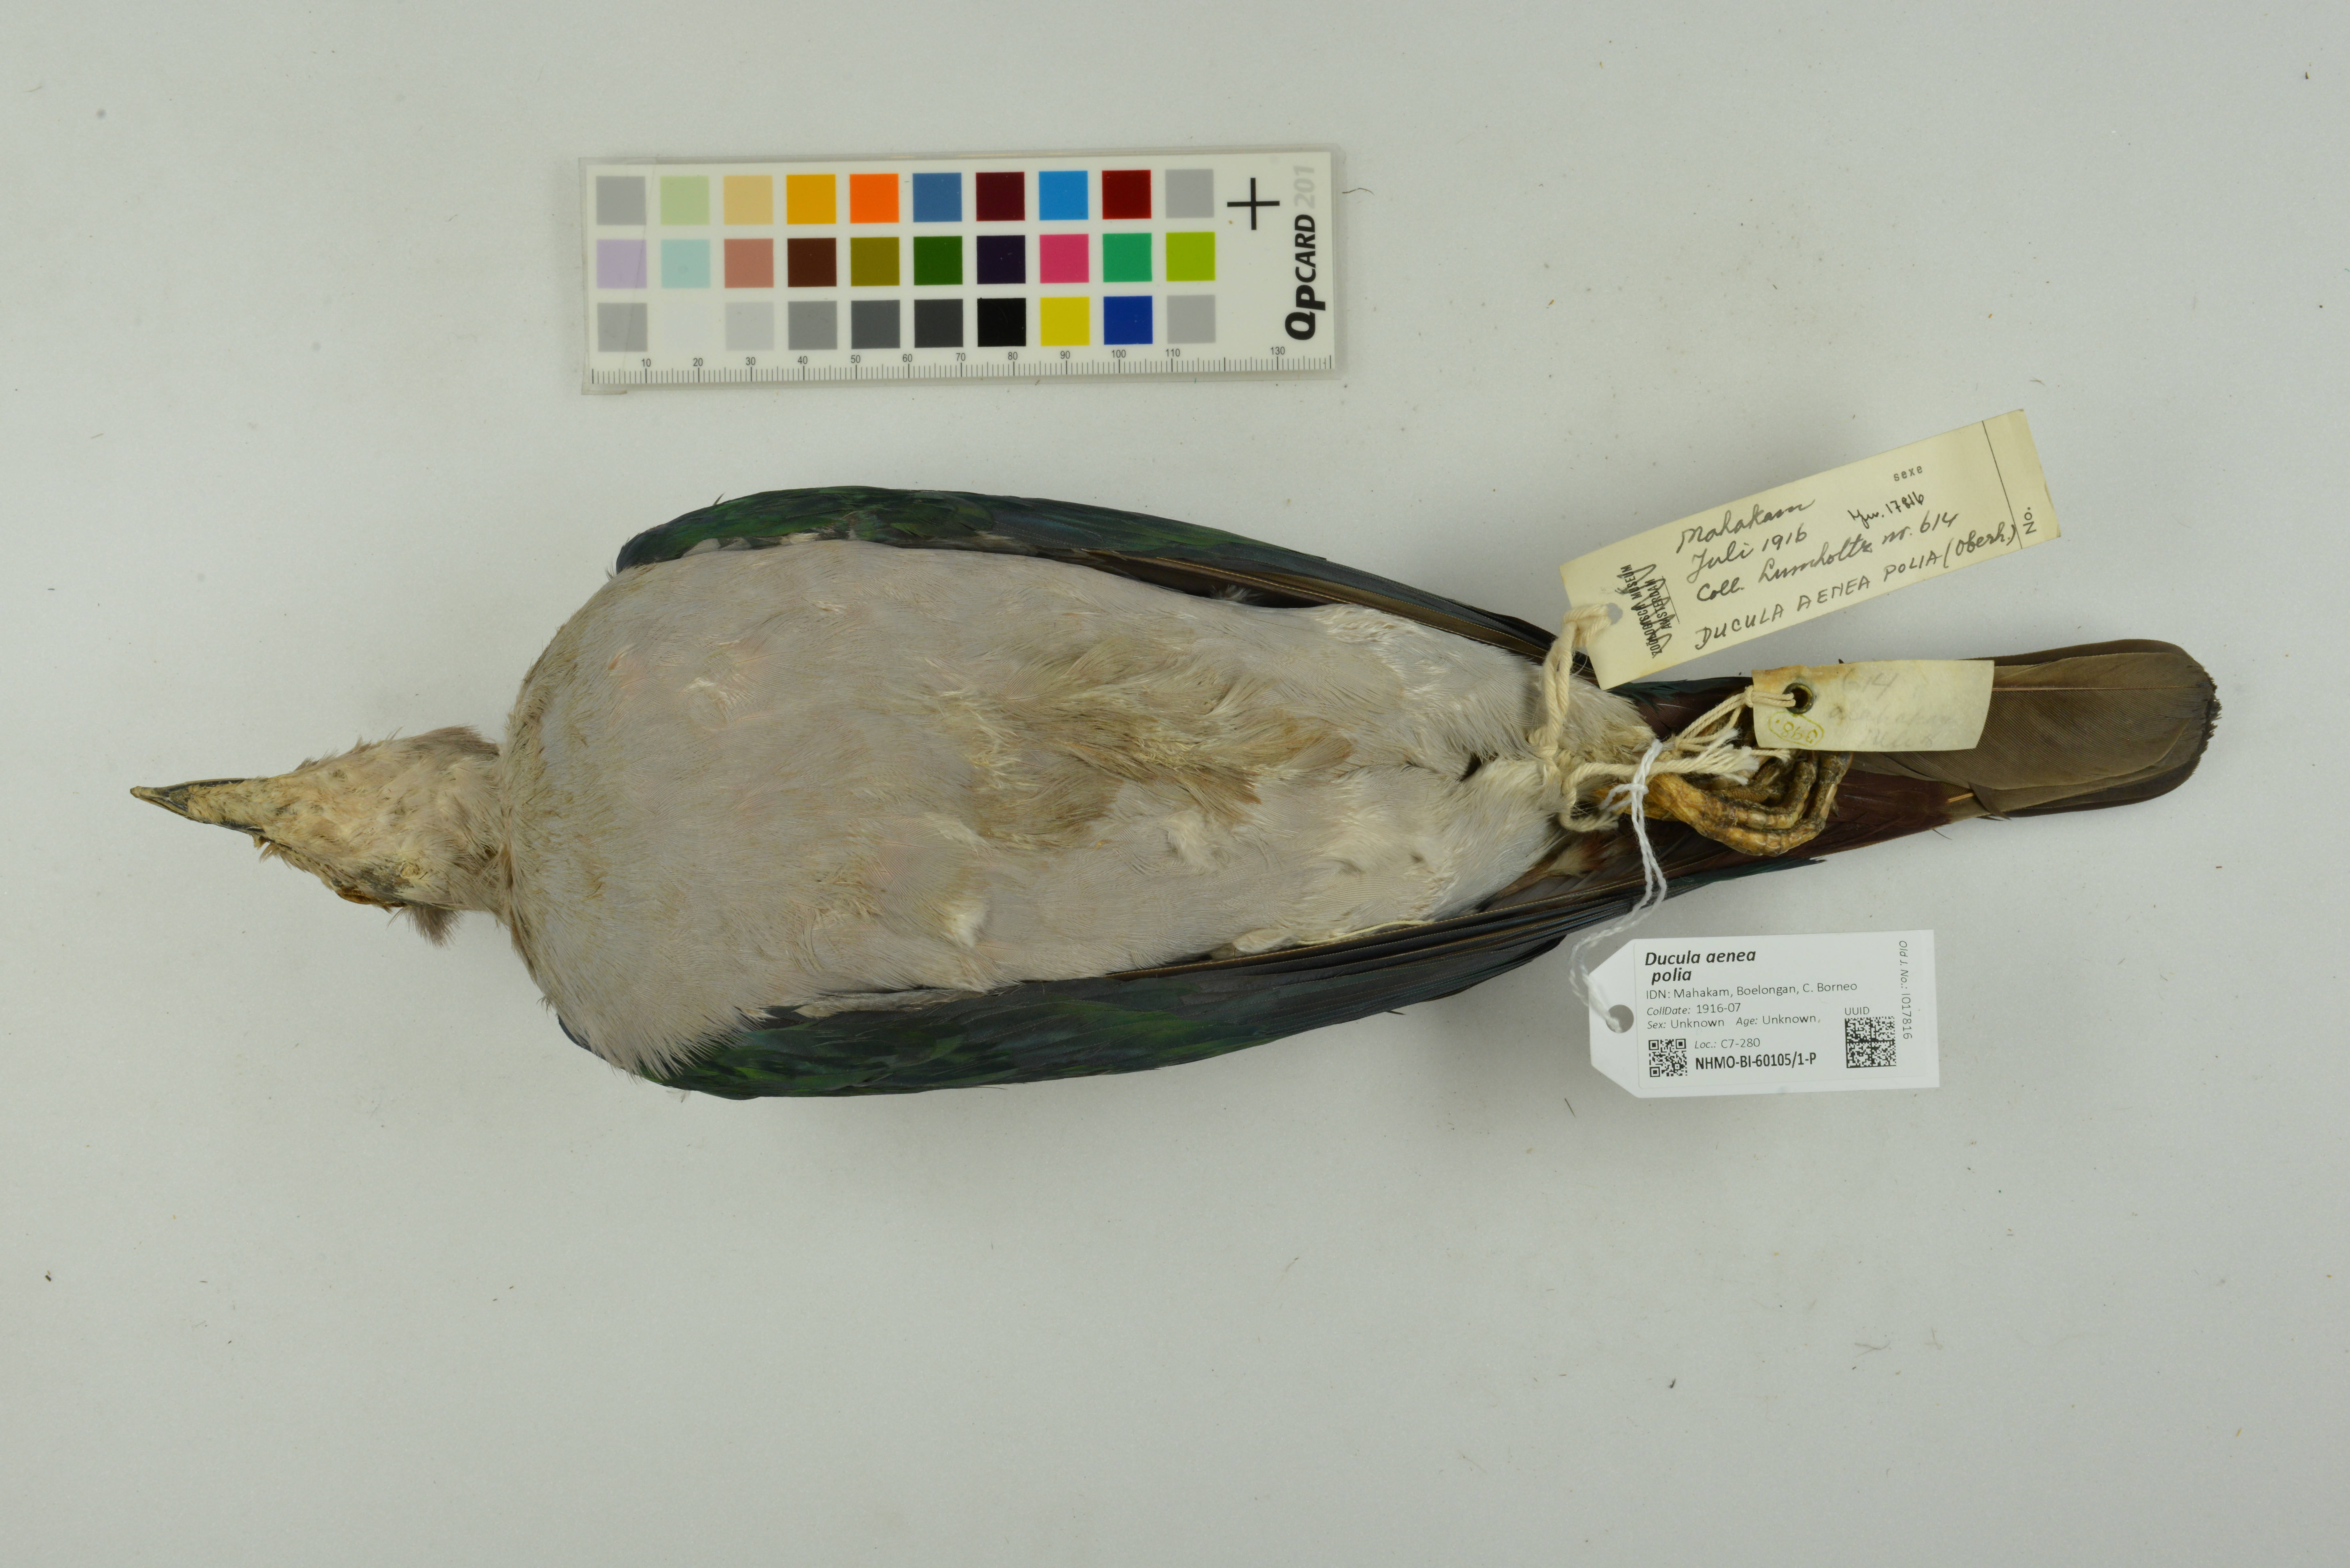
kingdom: Animalia
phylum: Chordata
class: Aves
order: Columbiformes
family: Columbidae
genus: Ducula
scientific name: Ducula aenea
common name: Green imperial pigeon
